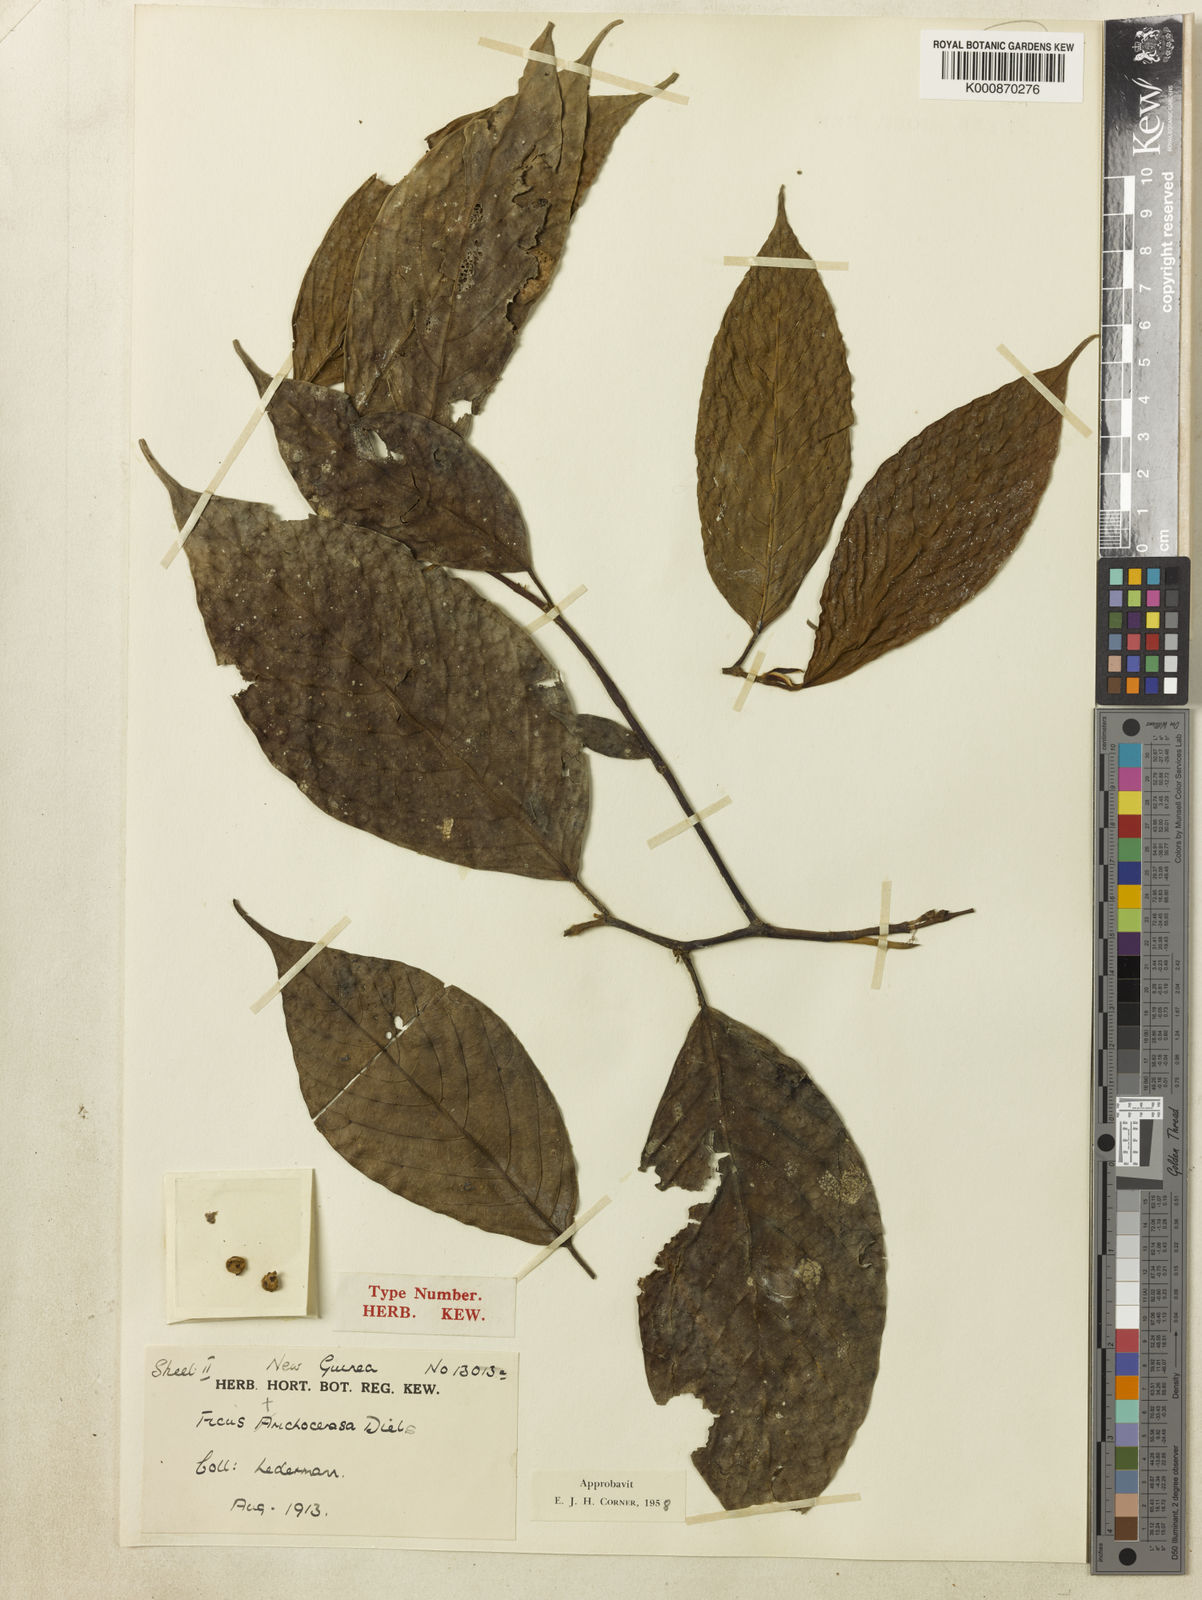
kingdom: Plantae
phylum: Tracheophyta
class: Magnoliopsida
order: Rosales
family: Moraceae
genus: Ficus
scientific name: Ficus trichocerasa
